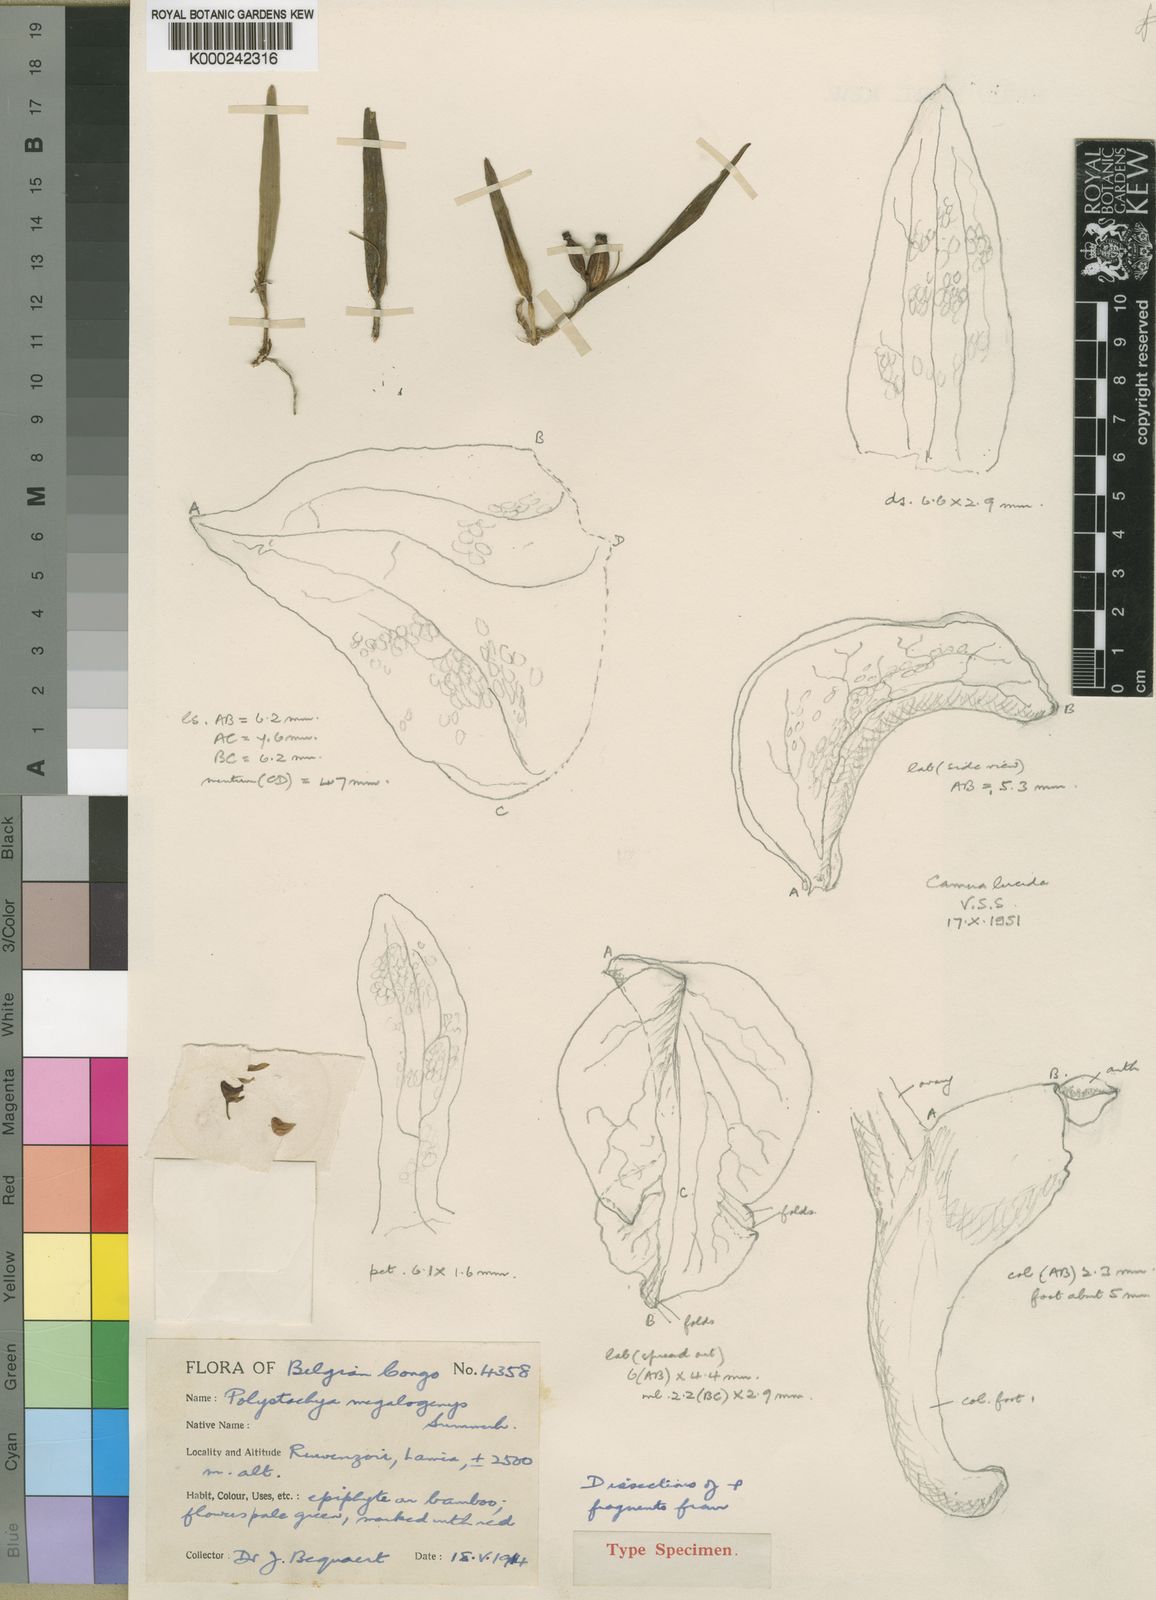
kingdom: Plantae
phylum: Tracheophyta
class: Liliopsida
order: Asparagales
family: Orchidaceae
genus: Polystachya
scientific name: Polystachya mildbraedii
